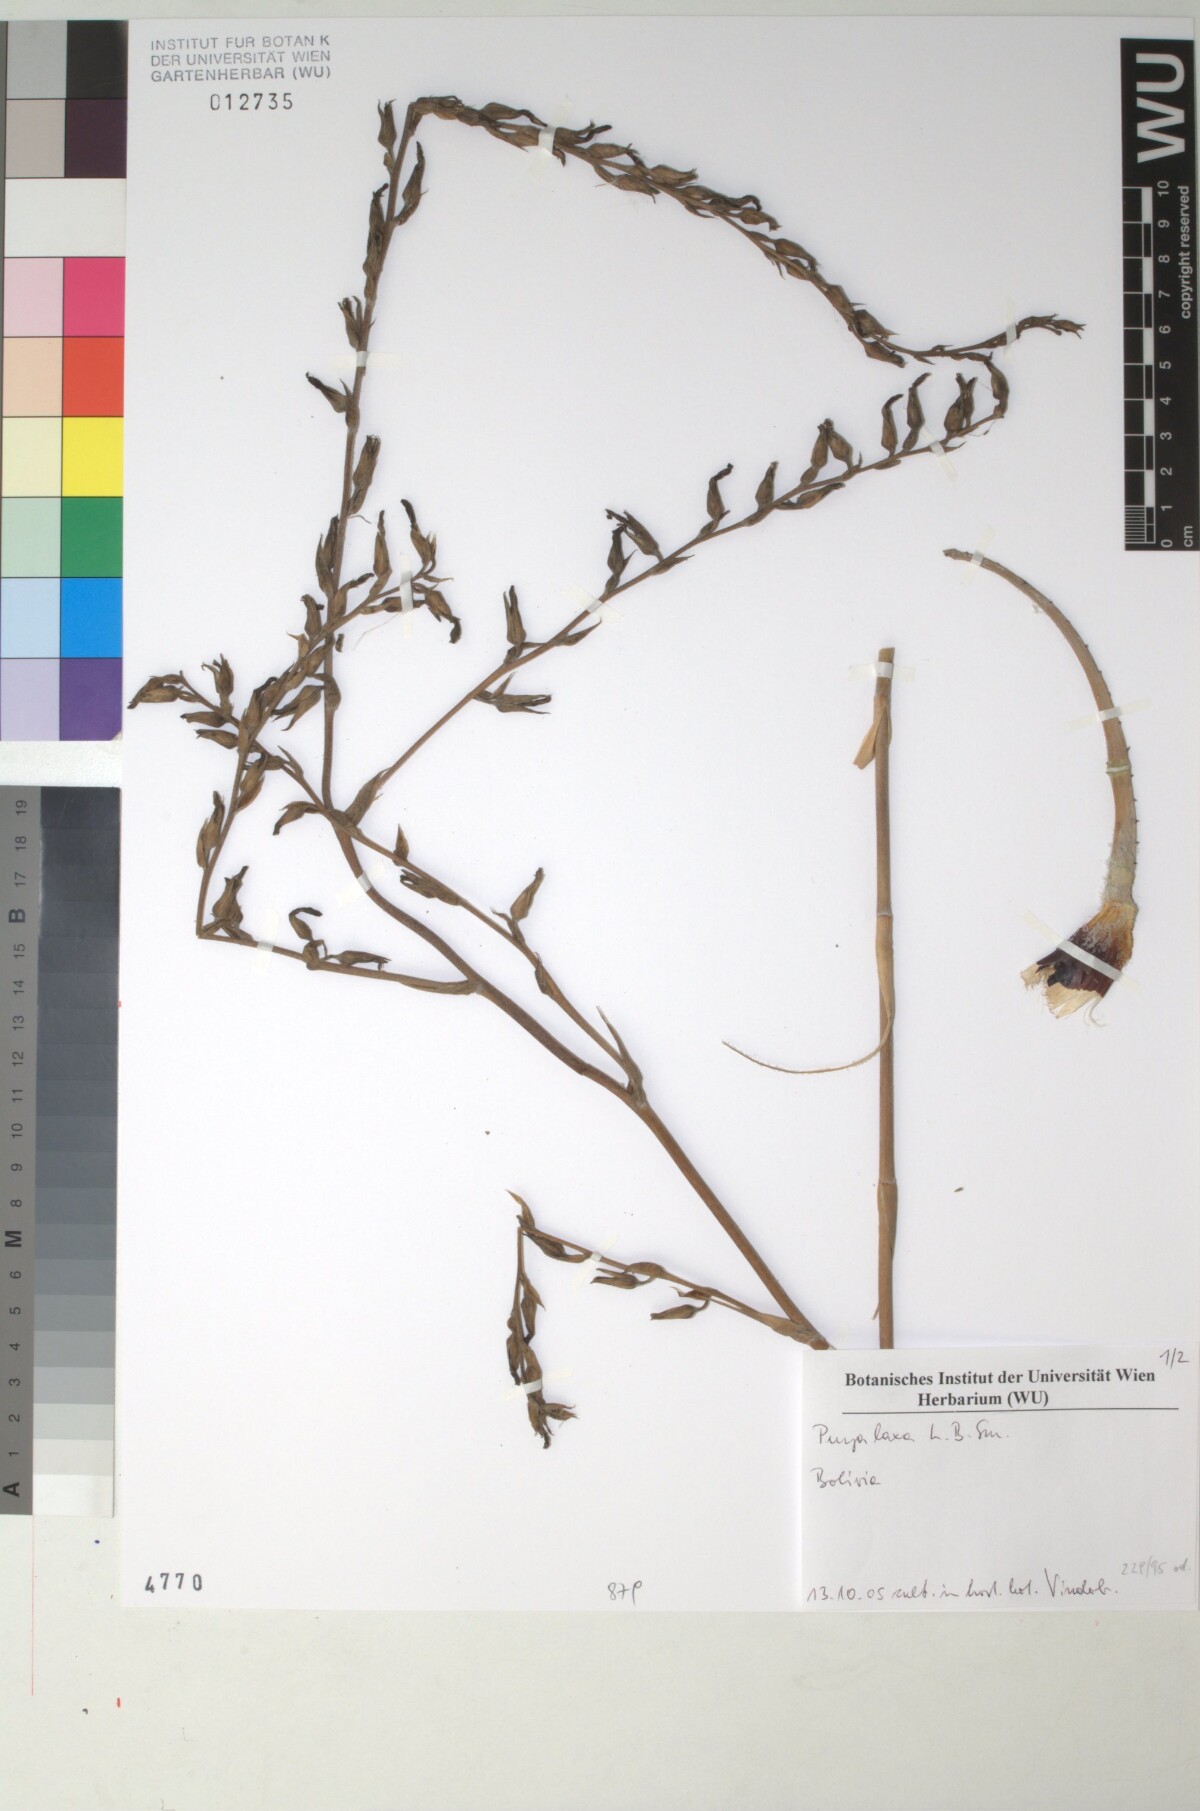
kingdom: Plantae
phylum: Tracheophyta
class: Liliopsida
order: Poales
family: Bromeliaceae
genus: Puya
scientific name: Puya laxa
